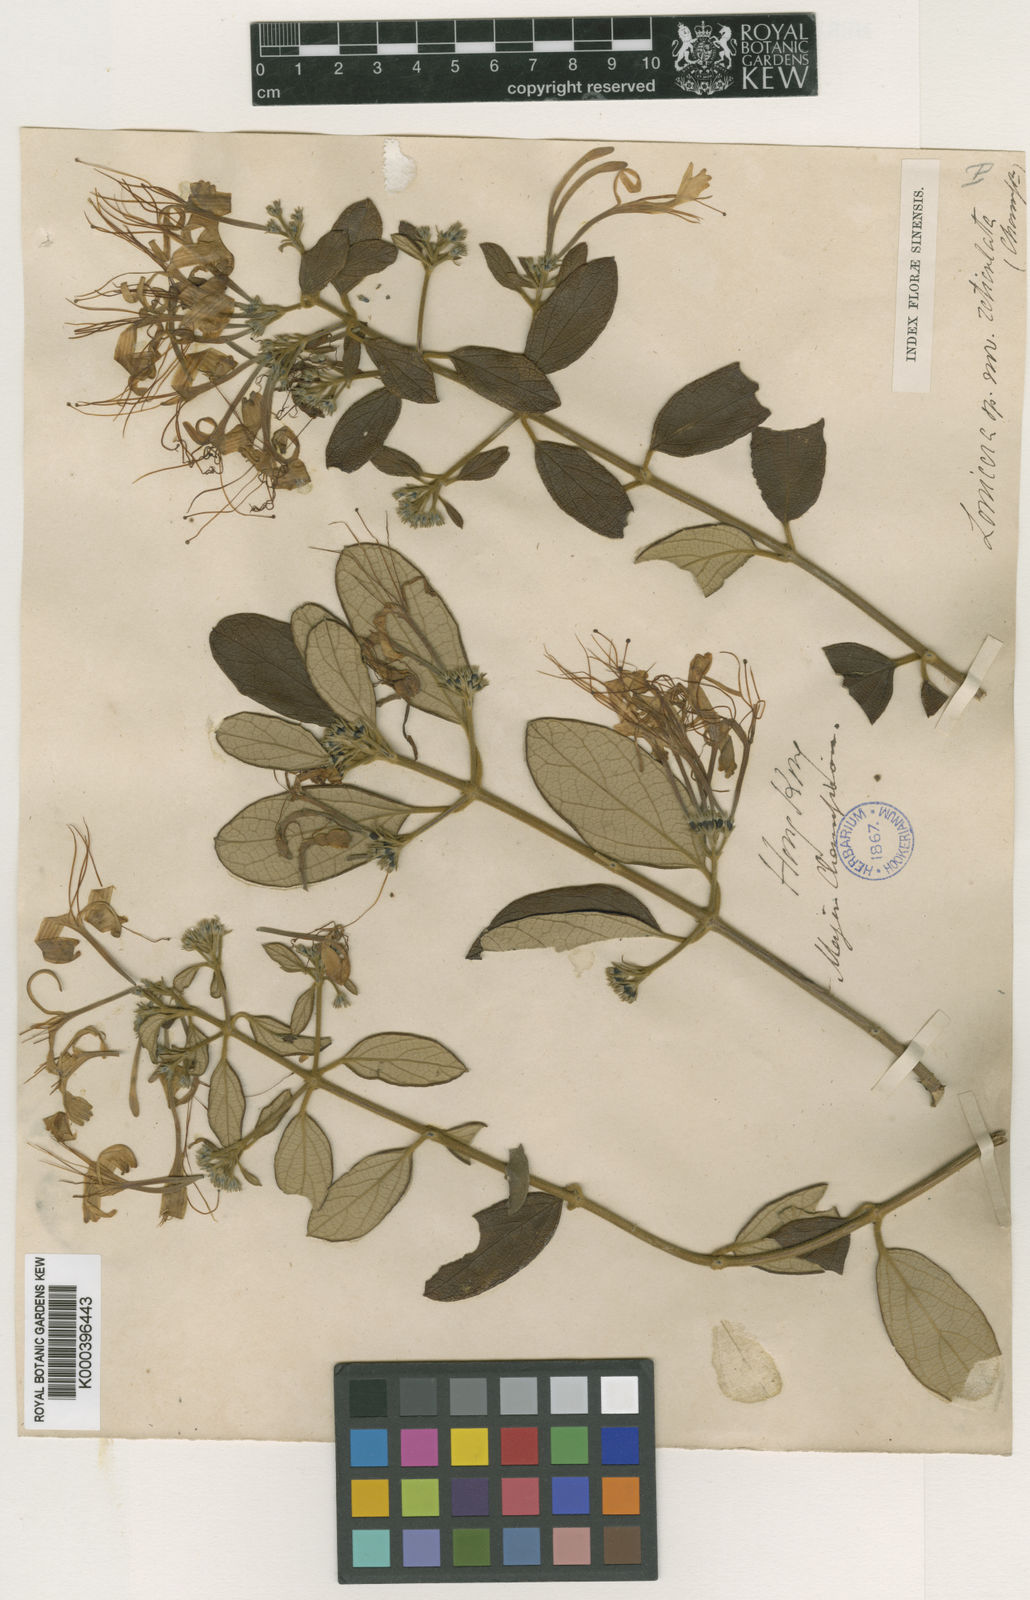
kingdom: Plantae
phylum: Tracheophyta
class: Magnoliopsida
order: Dipsacales
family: Caprifoliaceae
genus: Lonicera
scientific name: Lonicera rhytidophylla
